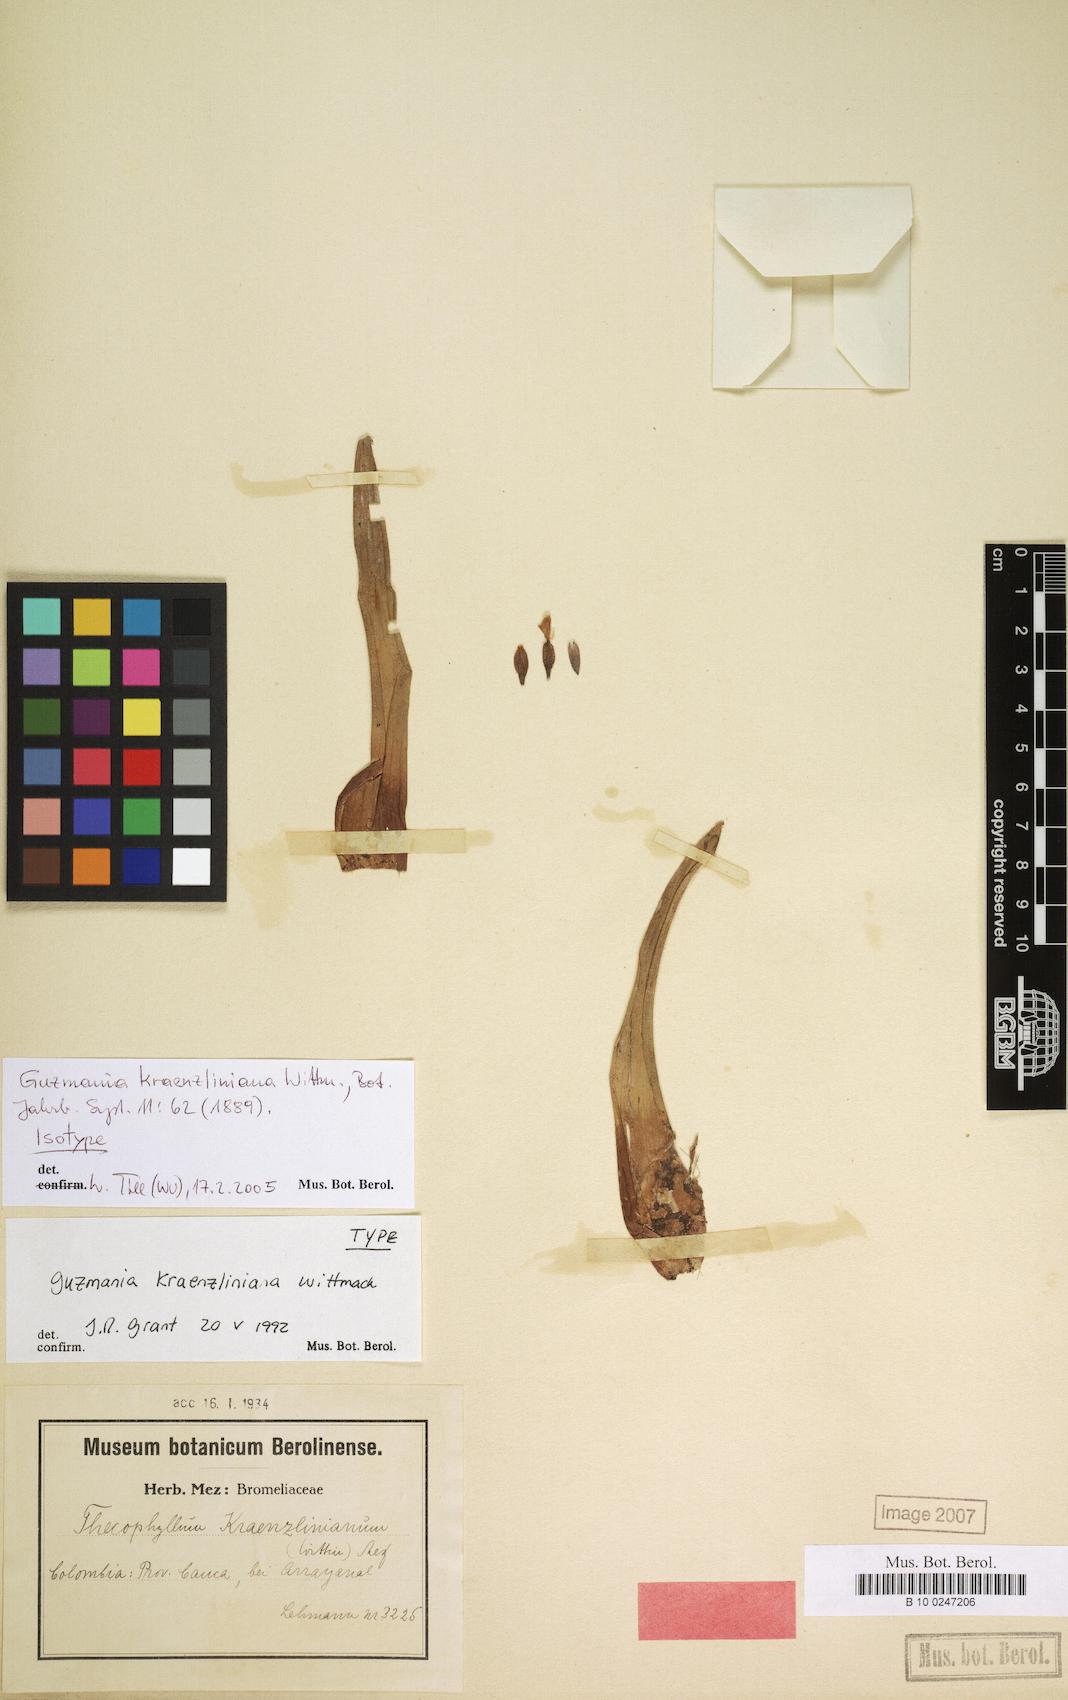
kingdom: Plantae
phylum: Tracheophyta
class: Liliopsida
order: Poales
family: Bromeliaceae
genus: Guzmania
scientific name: Guzmania kraenzliniana
